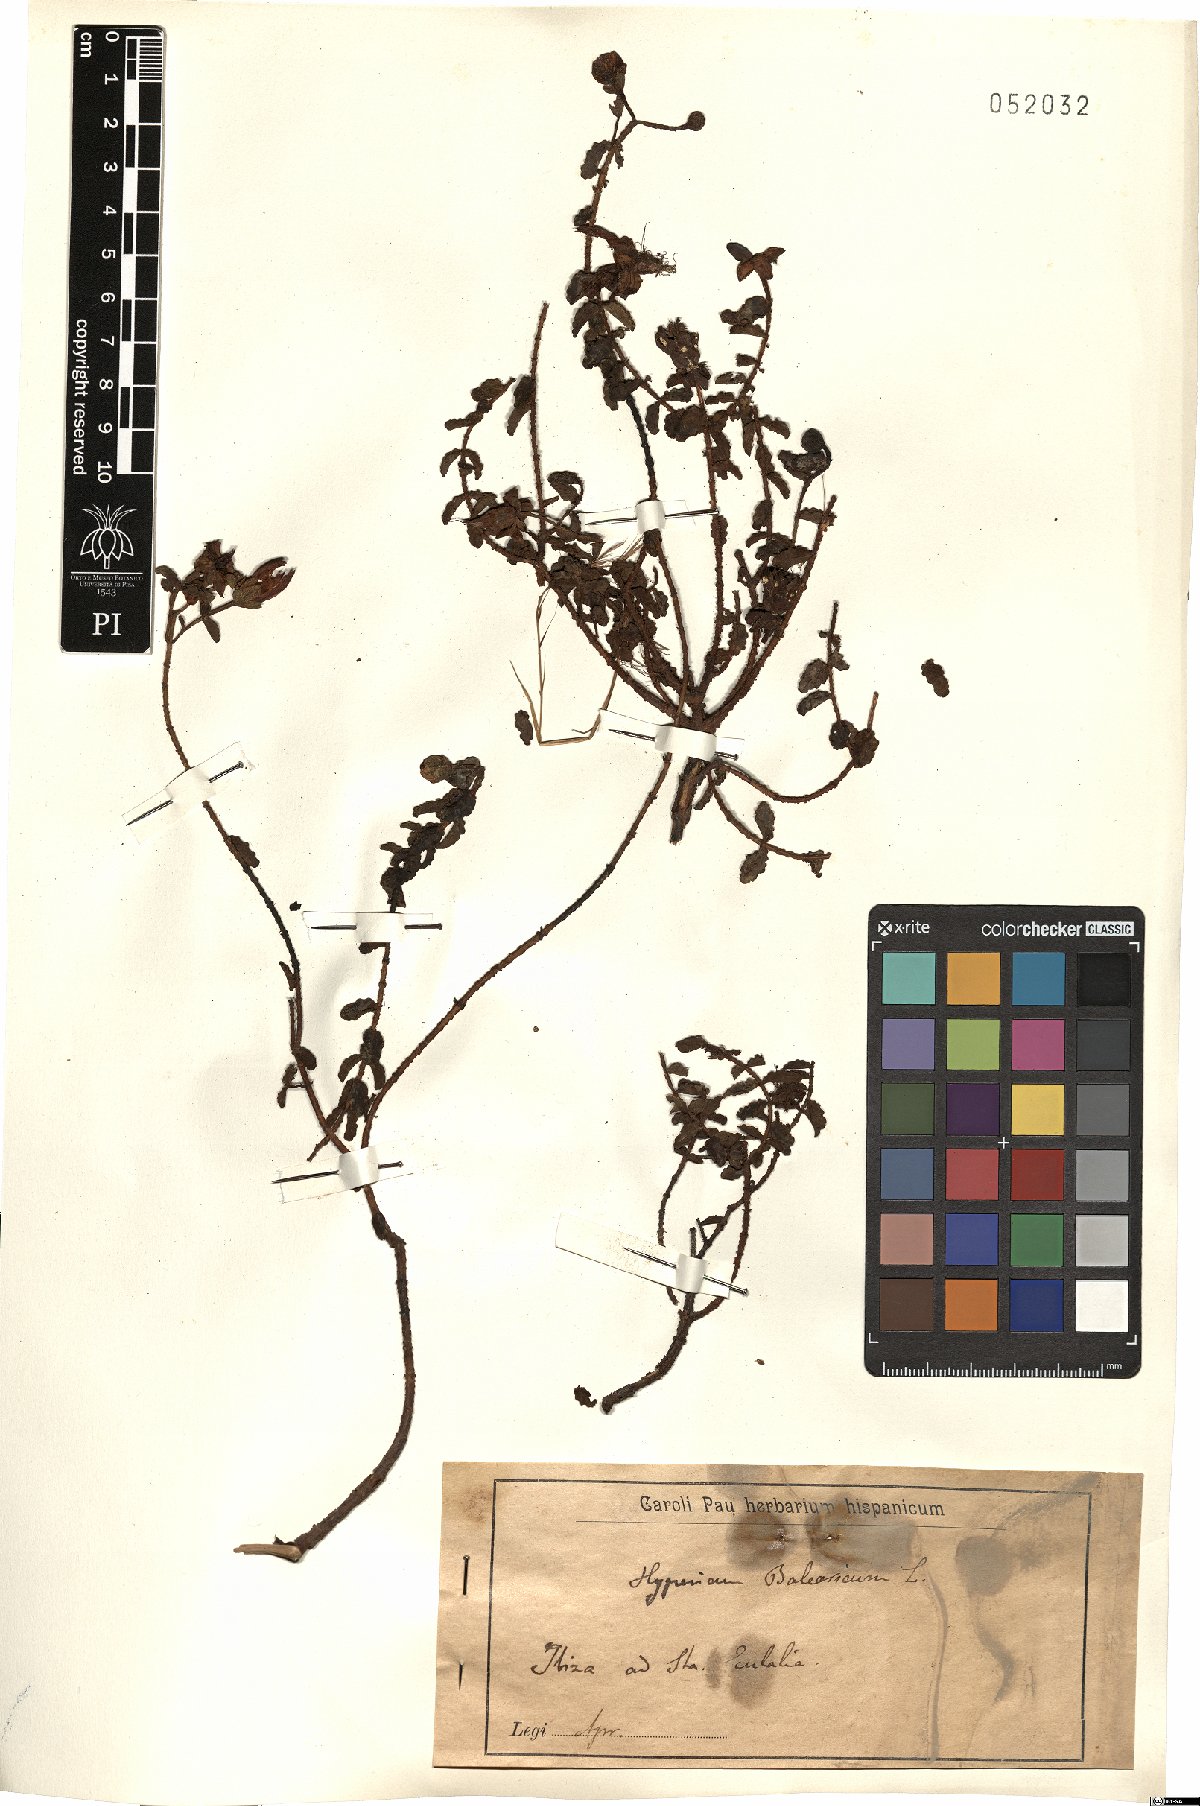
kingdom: Plantae
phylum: Tracheophyta
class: Magnoliopsida
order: Malpighiales
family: Hypericaceae
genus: Hypericum
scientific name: Hypericum balearicum
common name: Majorca st john's wort
